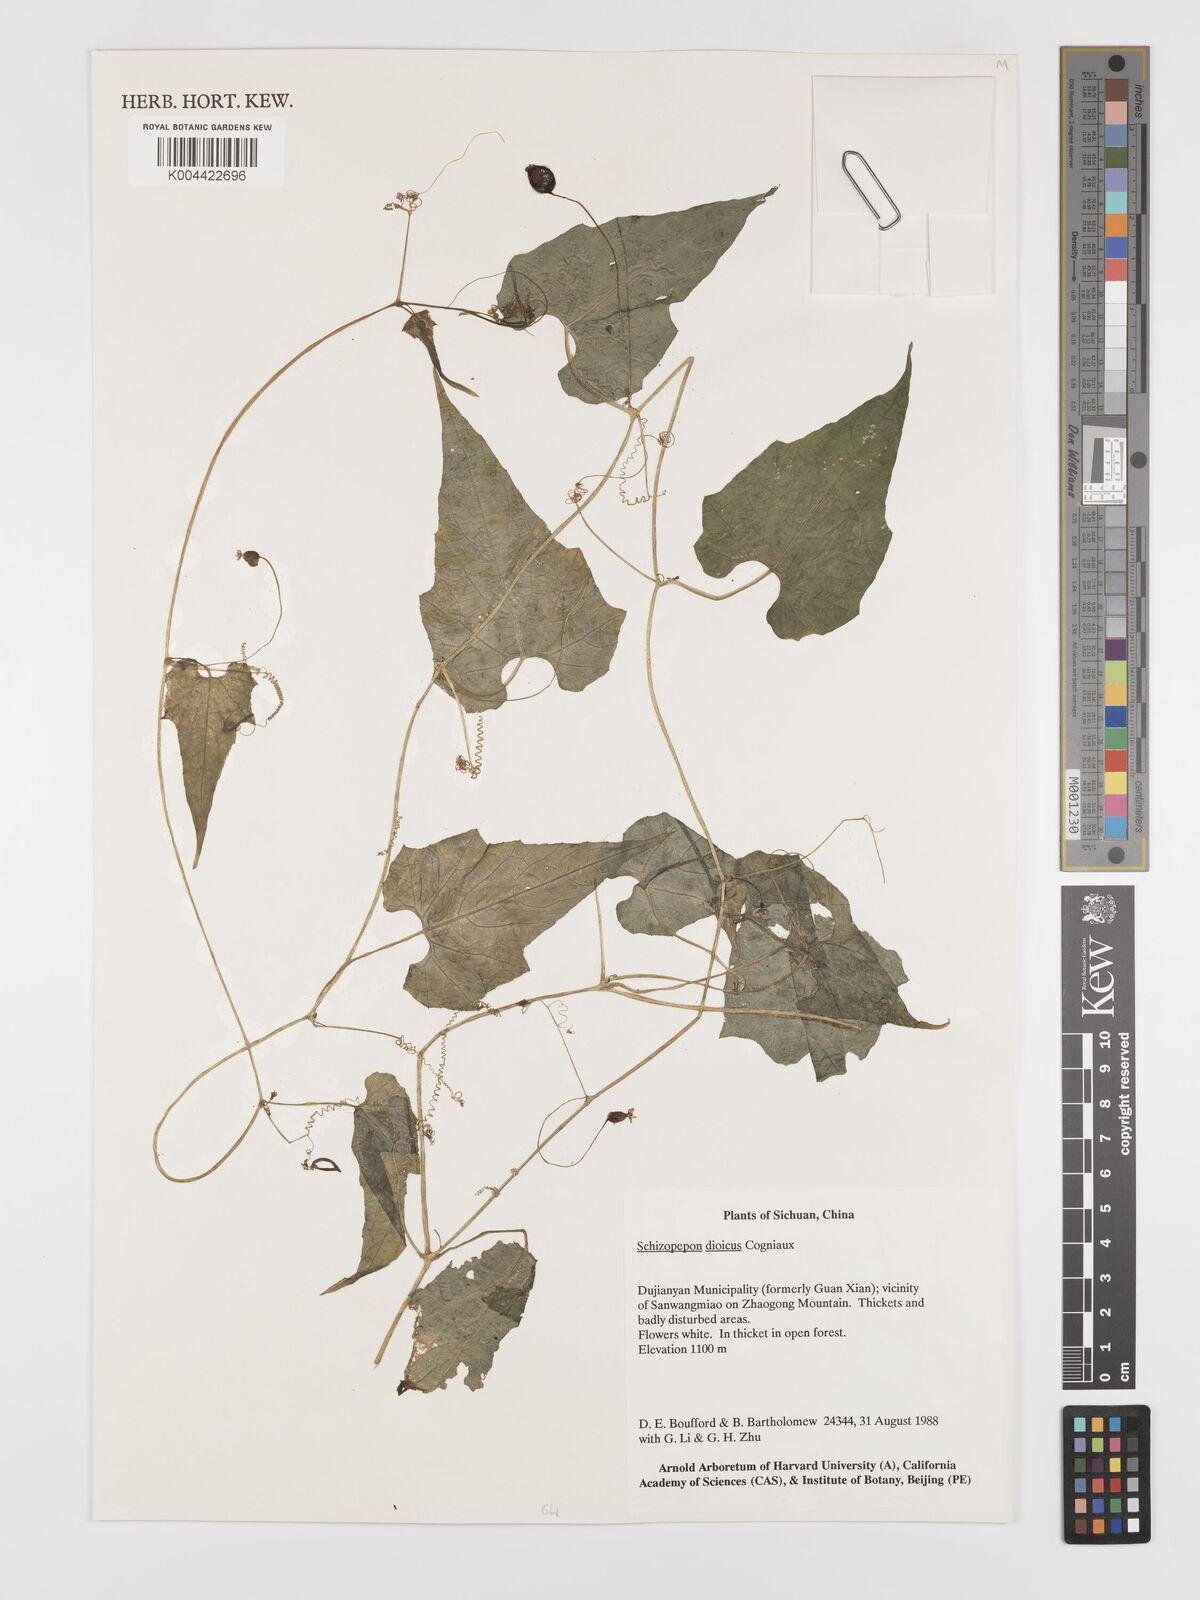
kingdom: Plantae
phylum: Tracheophyta
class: Magnoliopsida
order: Cucurbitales
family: Cucurbitaceae
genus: Schizopepon
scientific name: Schizopepon dioicus
